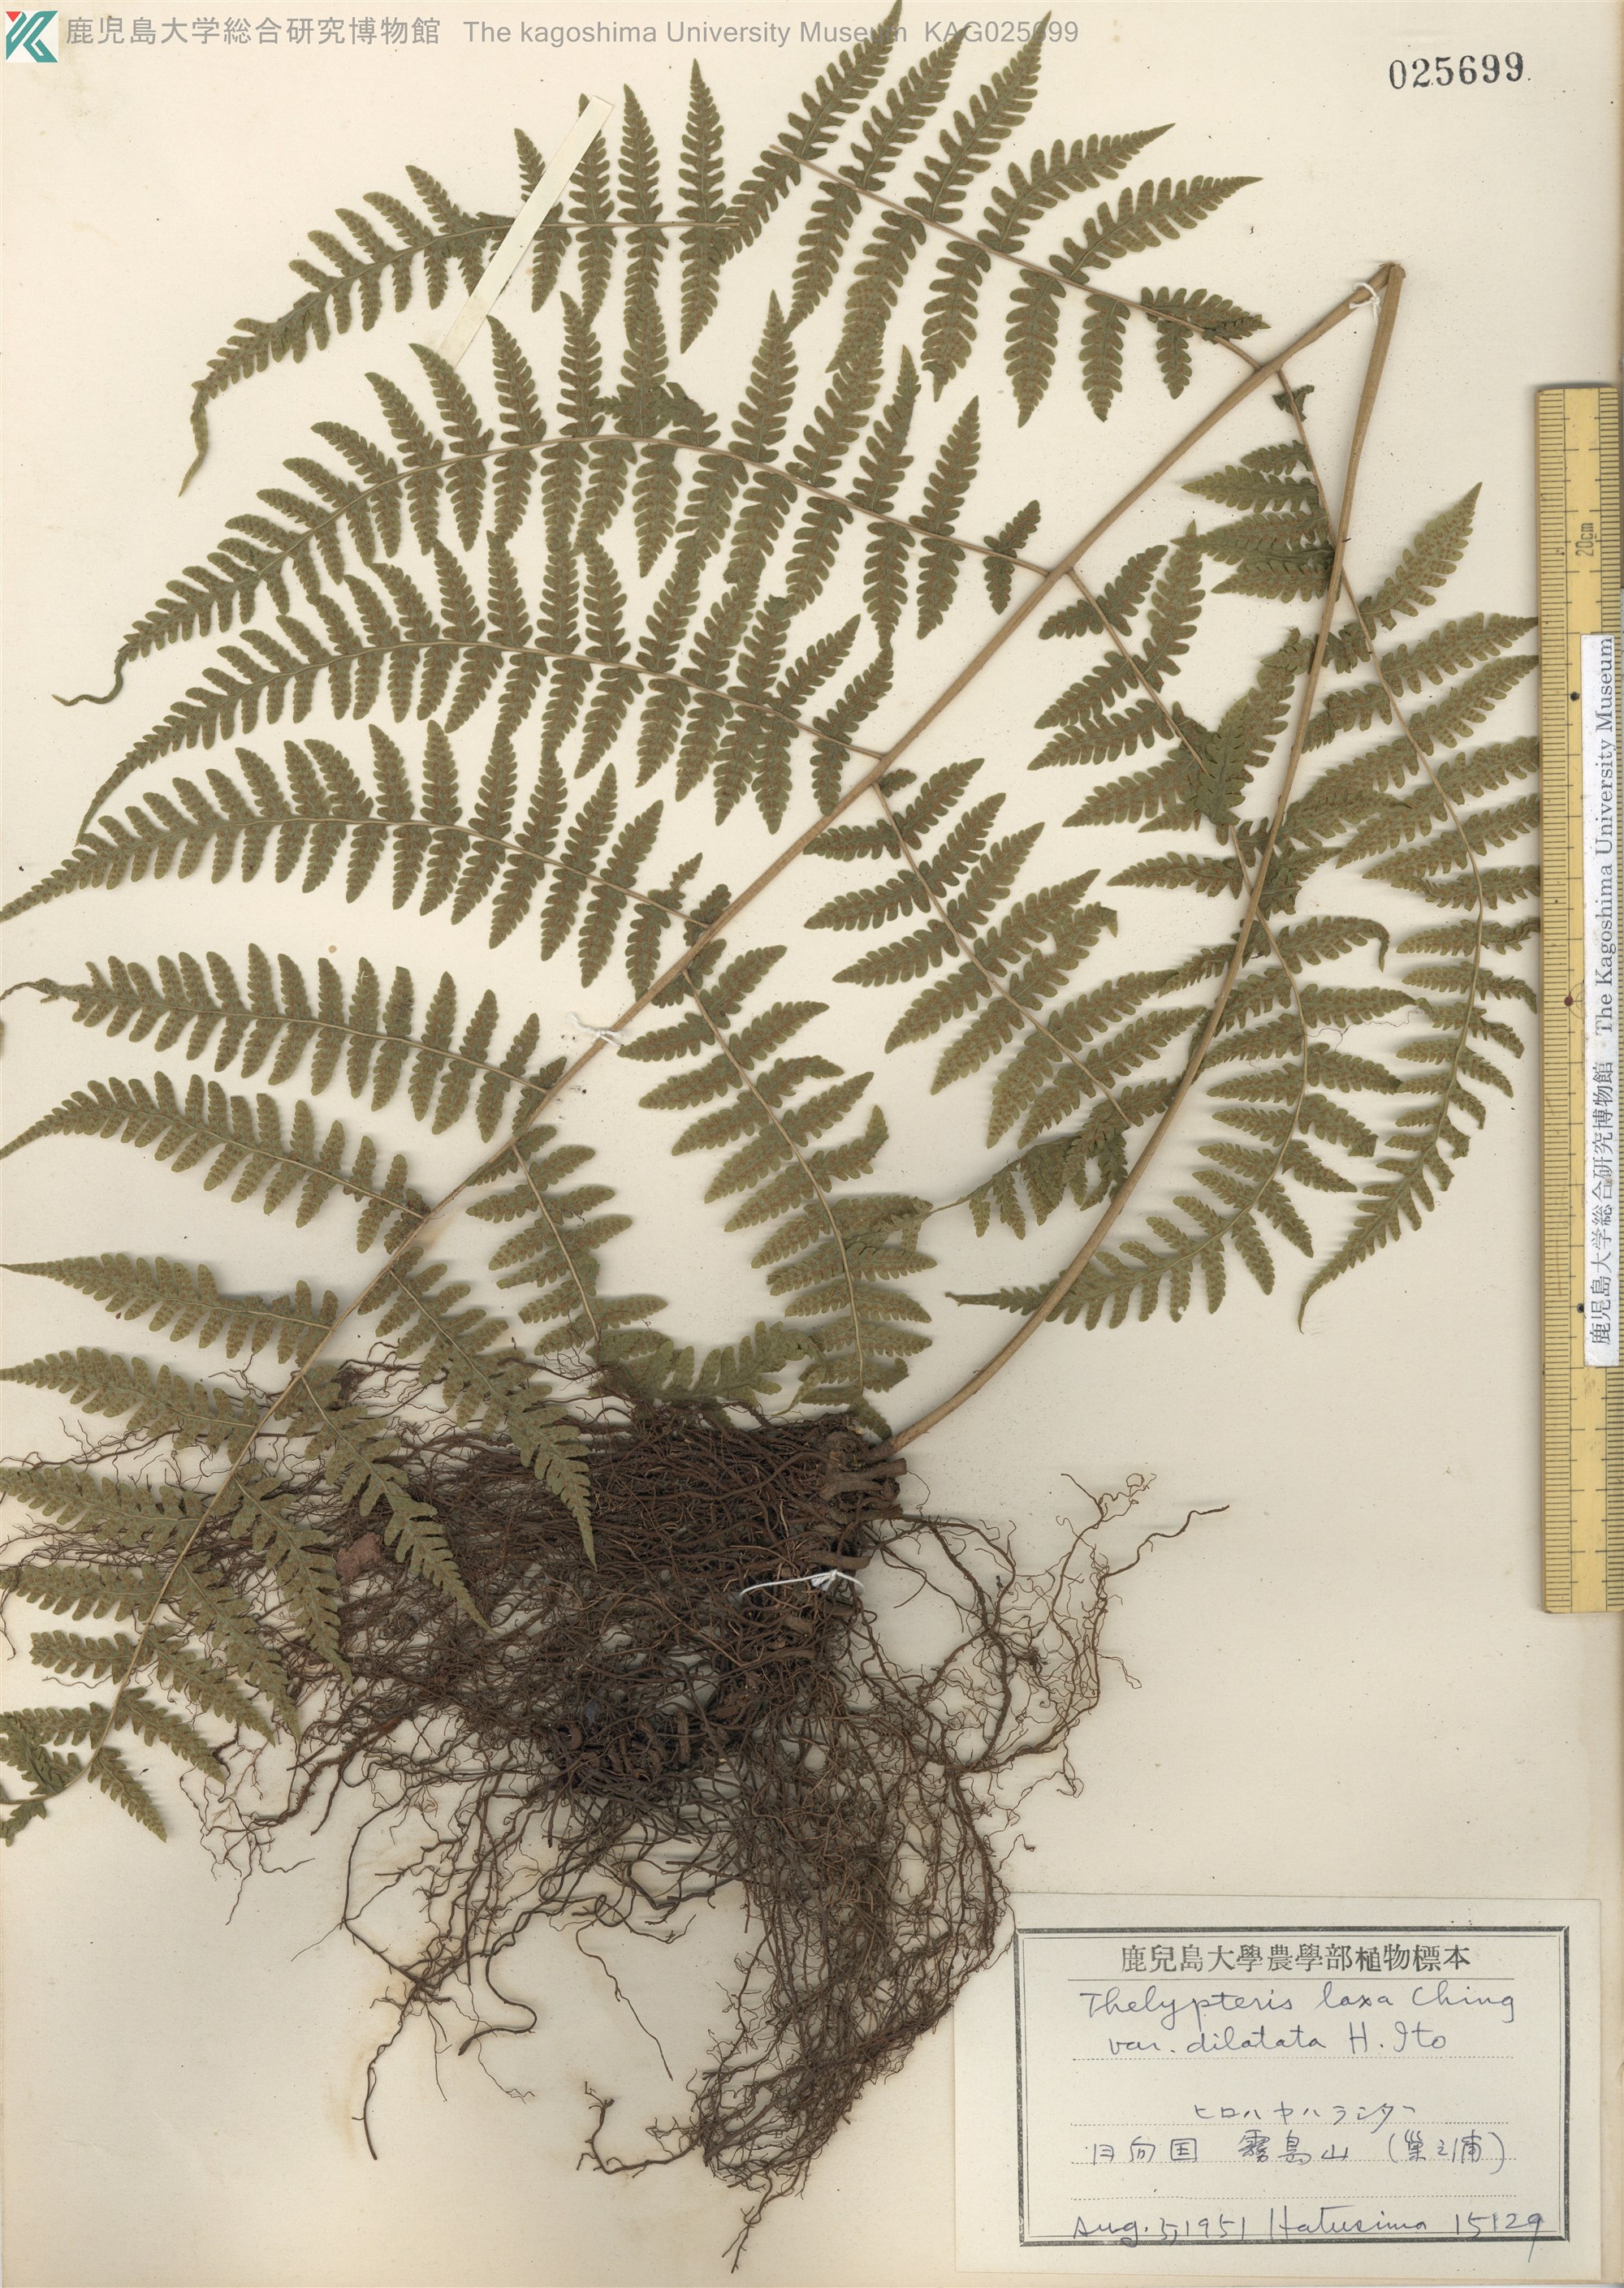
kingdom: Plantae
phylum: Tracheophyta
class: Polypodiopsida
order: Polypodiales
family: Thelypteridaceae
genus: Metathelypteris
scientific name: Metathelypteris hattori
